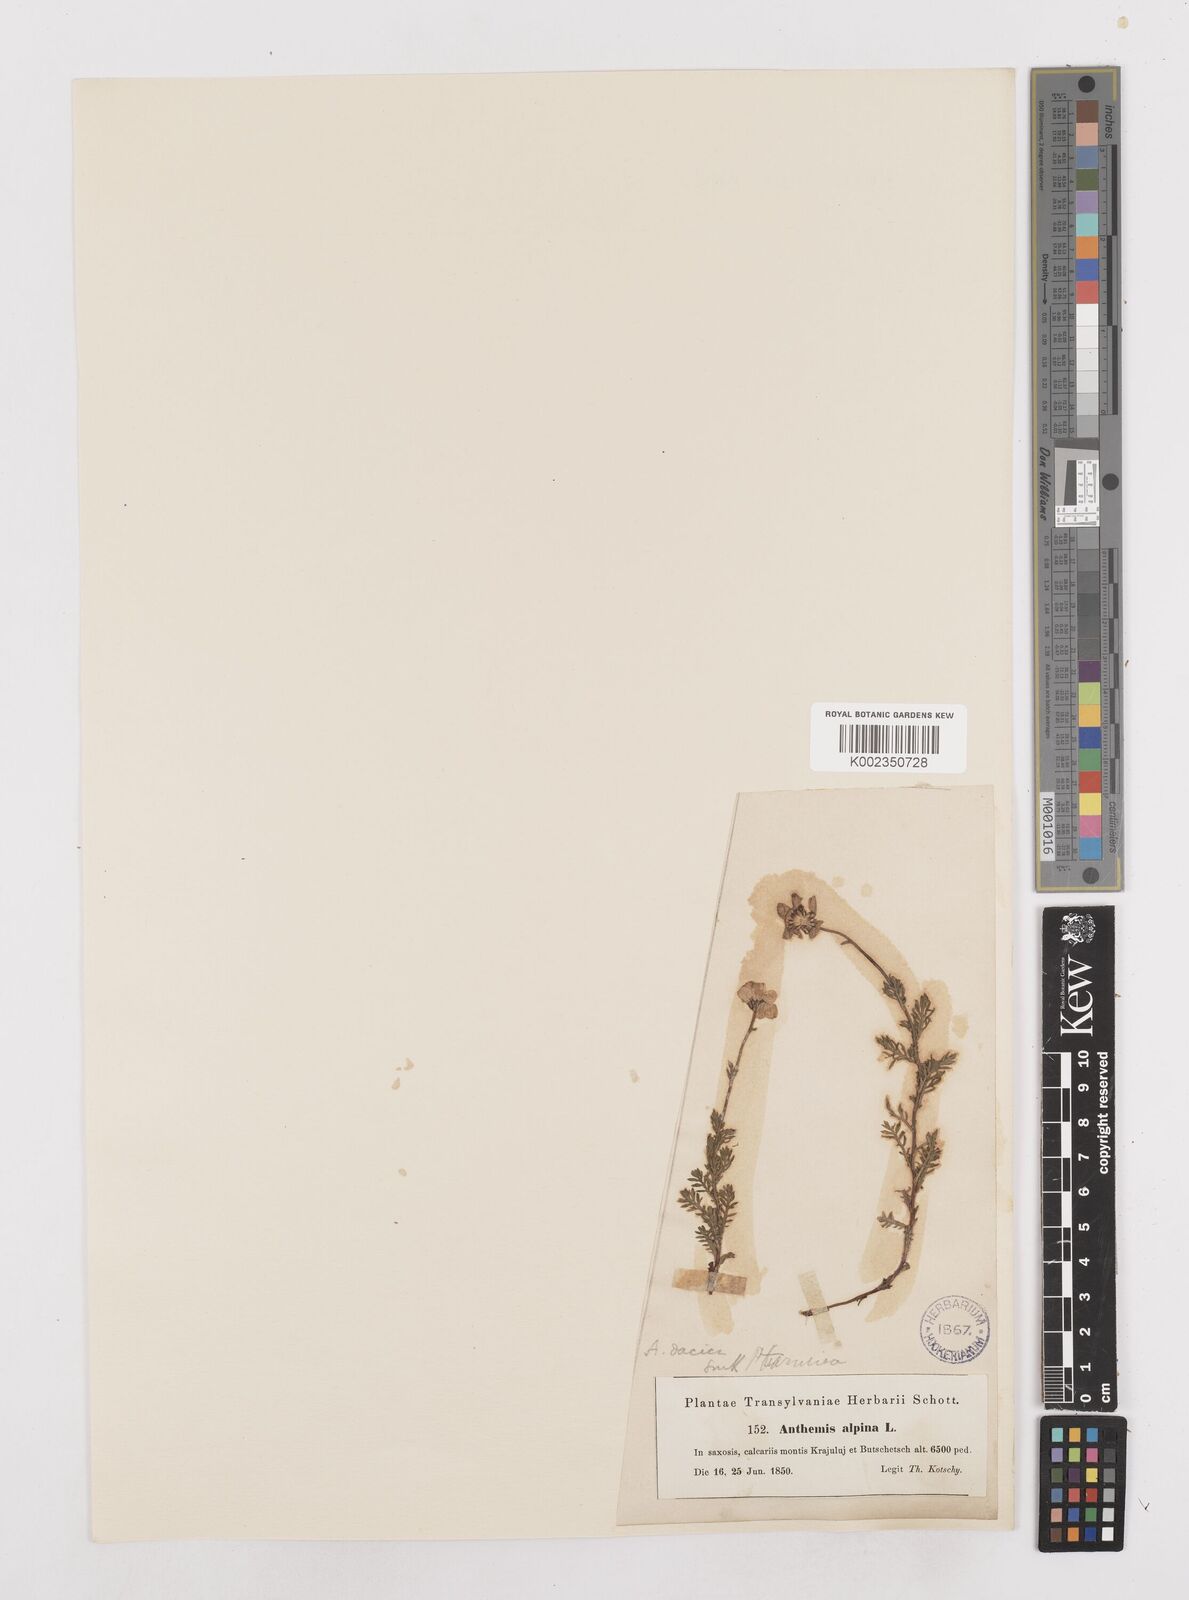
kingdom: Plantae
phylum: Tracheophyta
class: Magnoliopsida
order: Asterales
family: Asteraceae
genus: Achillea
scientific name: Achillea oxyloba
